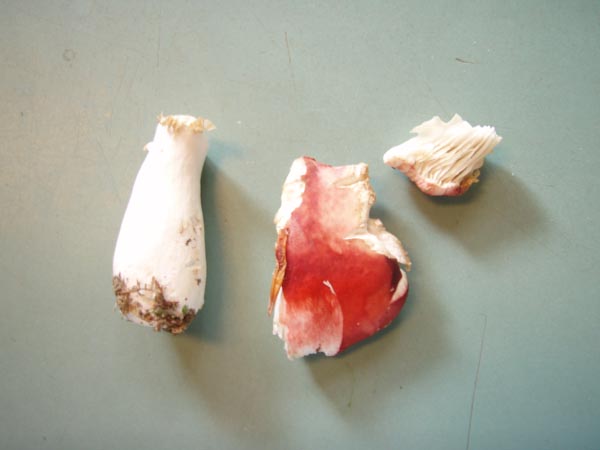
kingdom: Fungi
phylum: Basidiomycota
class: Agaricomycetes
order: Russulales
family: Russulaceae
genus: Russula
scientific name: Russula nobilis
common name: lille gift-skørhat
